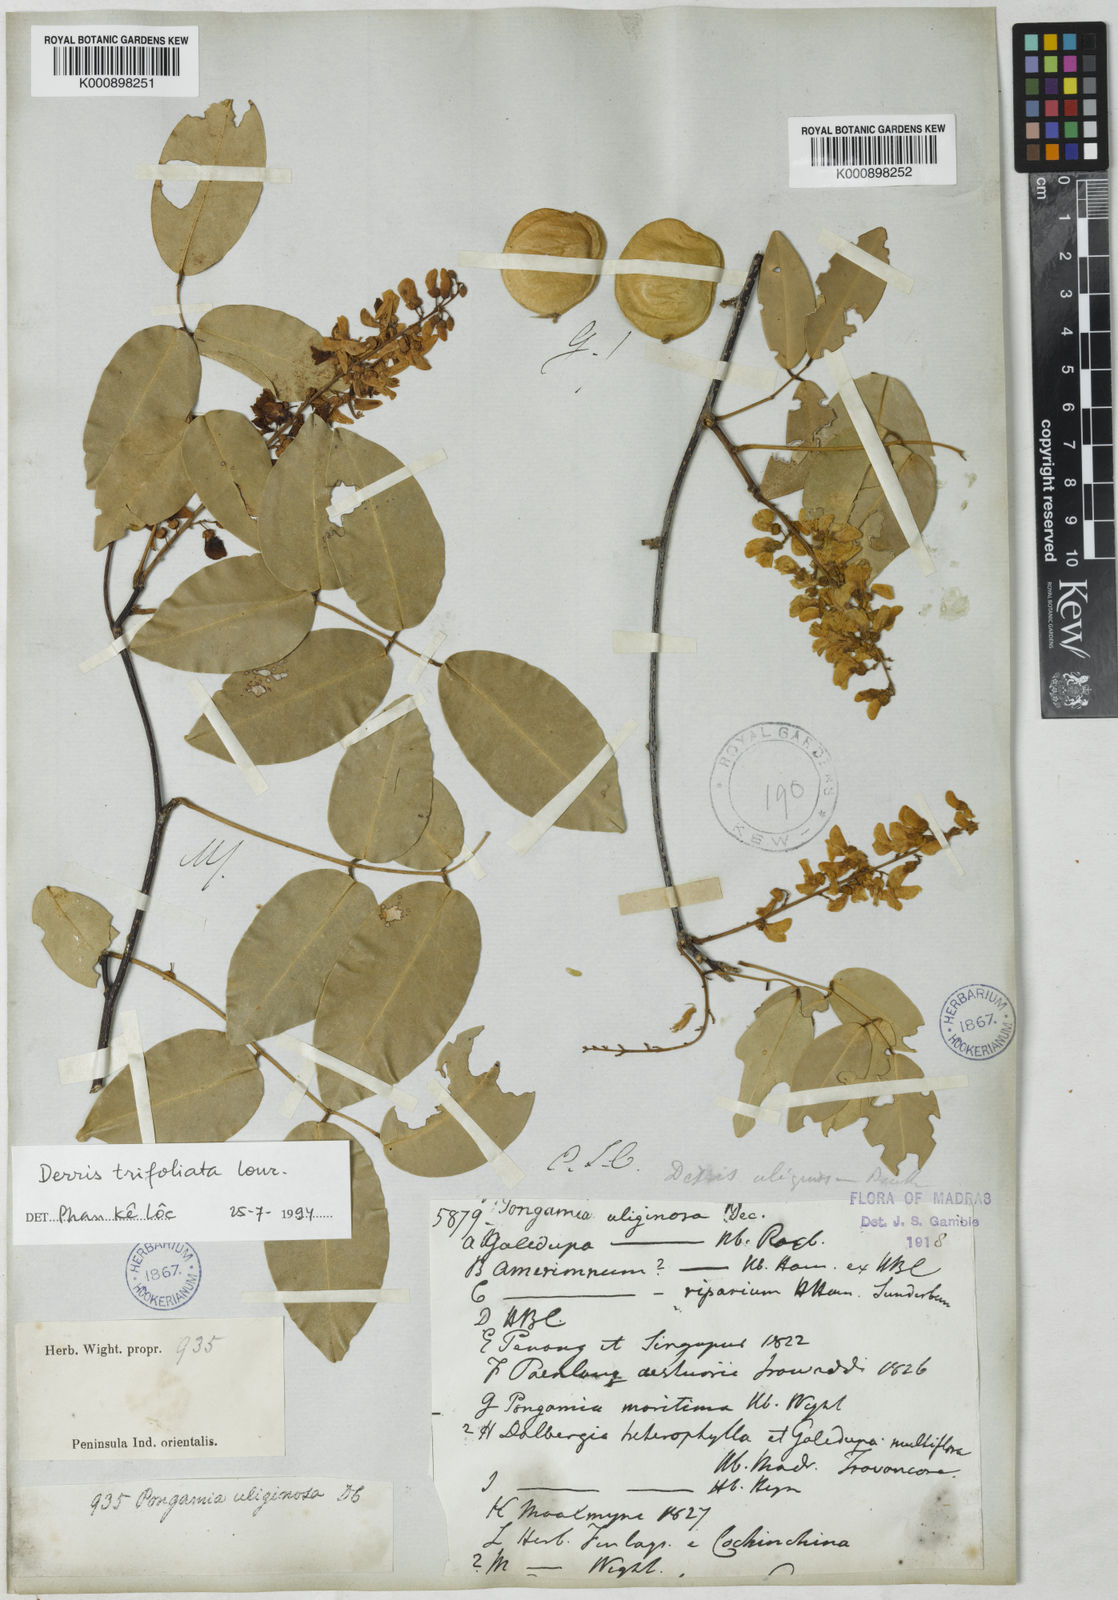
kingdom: Plantae
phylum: Tracheophyta
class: Magnoliopsida
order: Fabales
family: Fabaceae
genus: Derris
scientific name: Derris trifoliata
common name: Three-leaf derris
